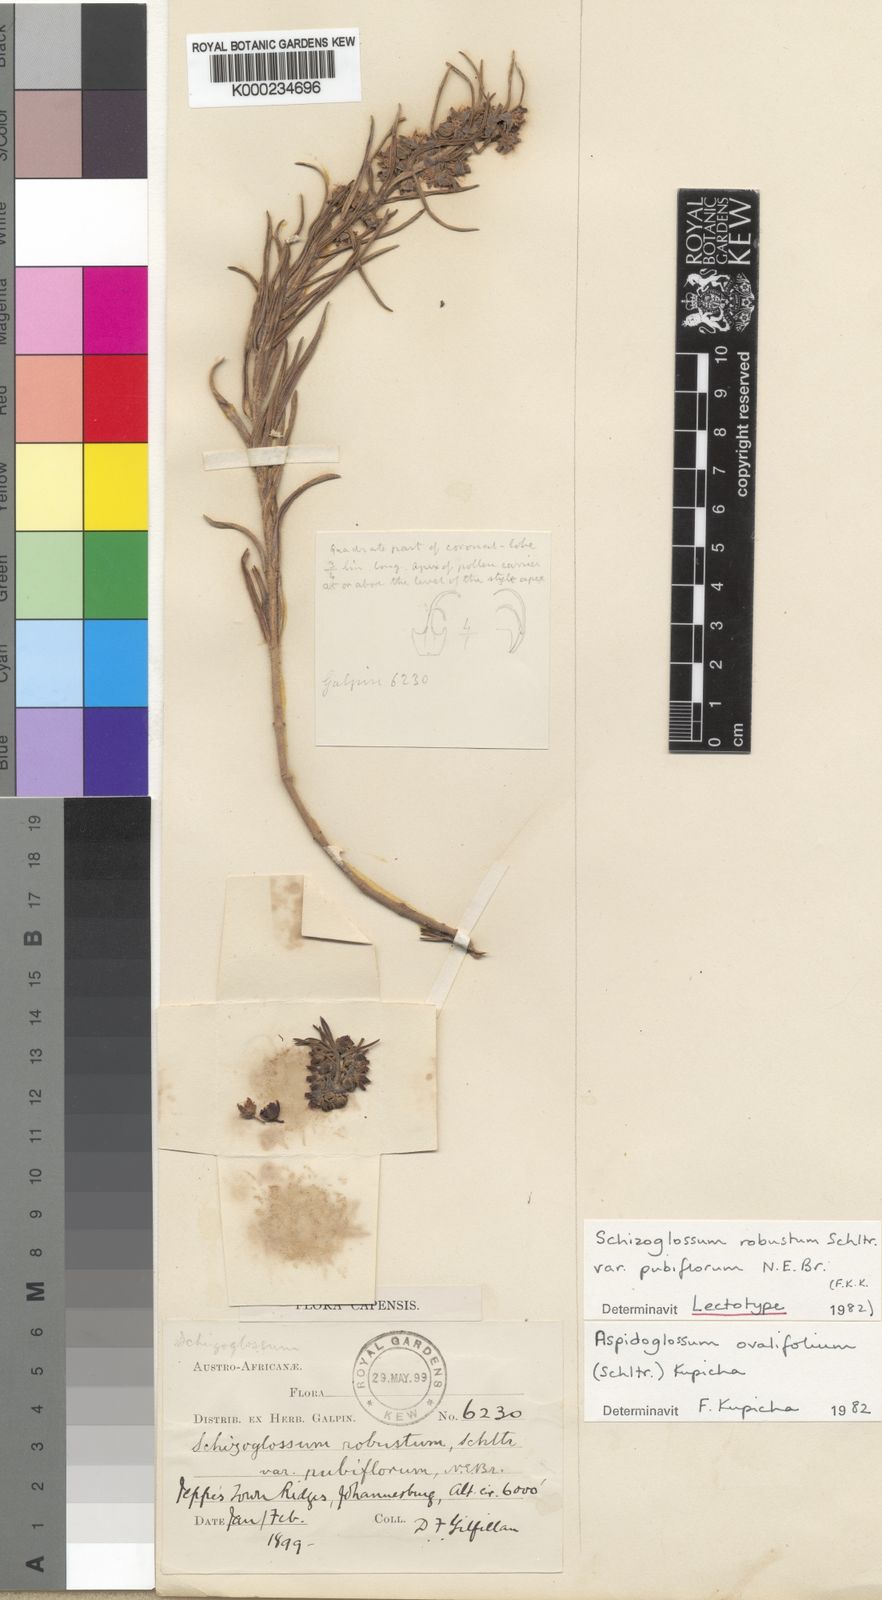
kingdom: Plantae
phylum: Tracheophyta
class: Magnoliopsida
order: Gentianales
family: Apocynaceae
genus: Aspidoglossum
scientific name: Aspidoglossum ovalifolium
